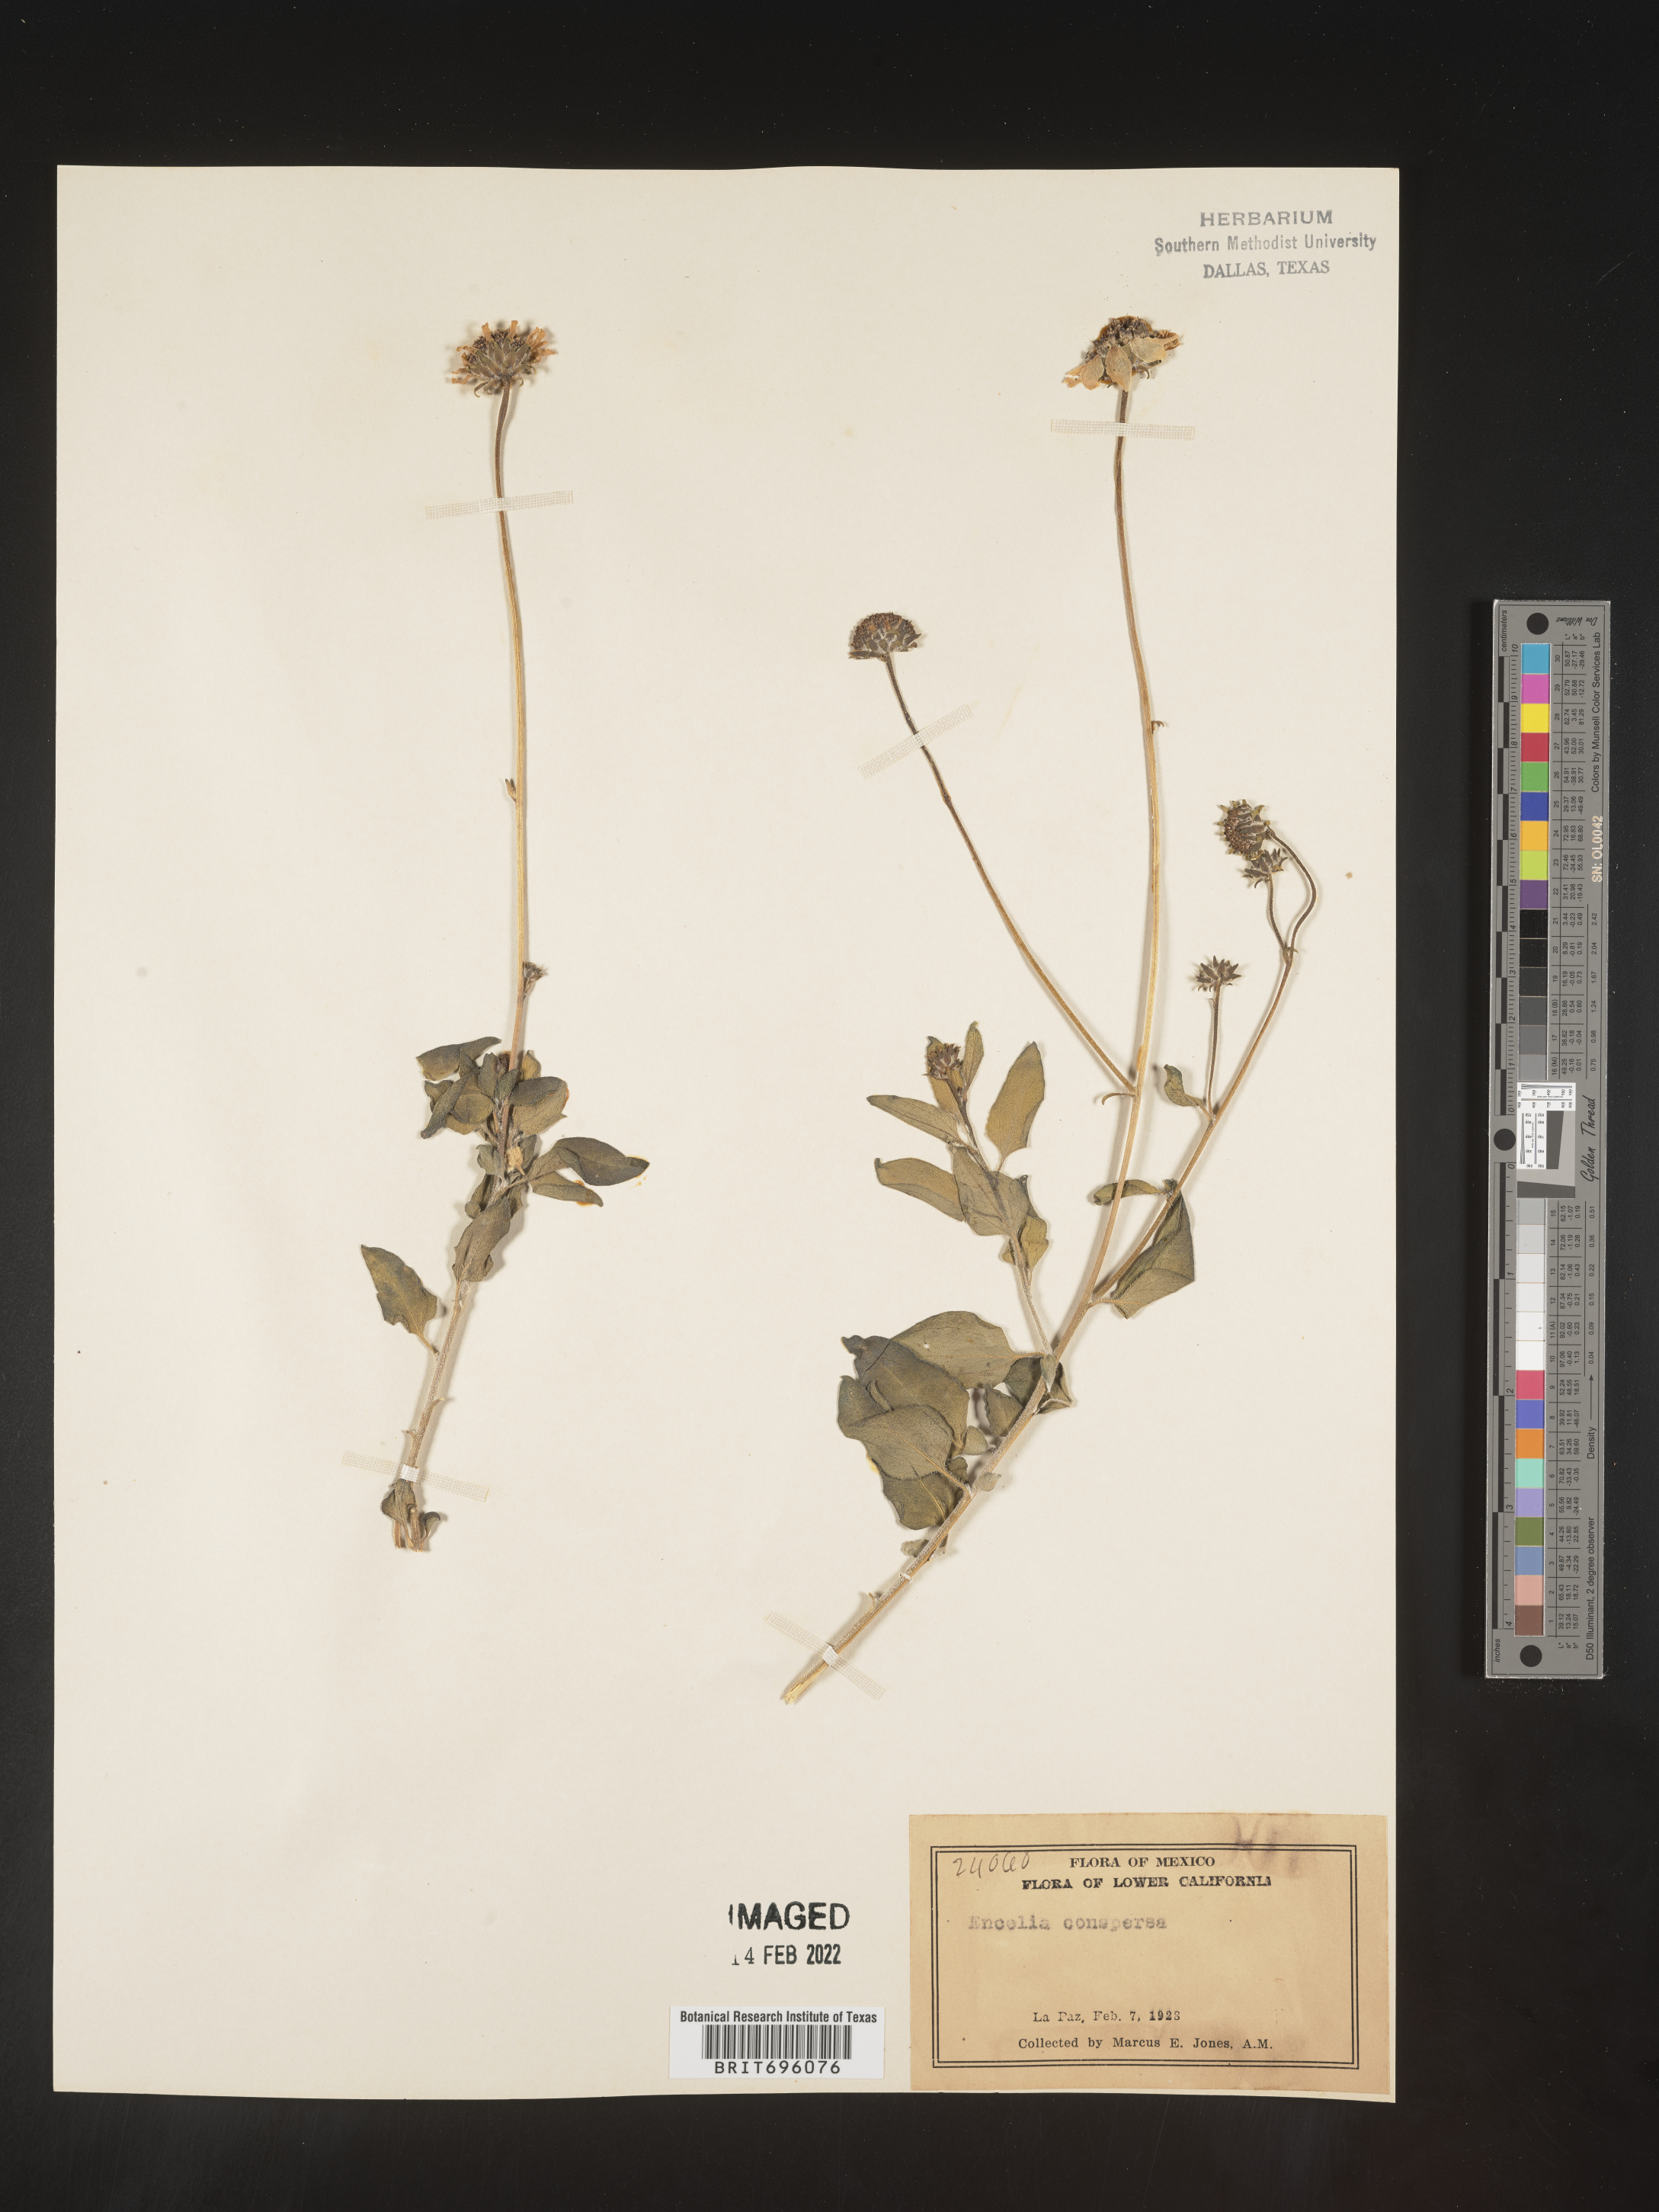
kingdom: Plantae
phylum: Tracheophyta
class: Magnoliopsida
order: Asterales
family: Asteraceae
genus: Encelia
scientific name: Encelia
